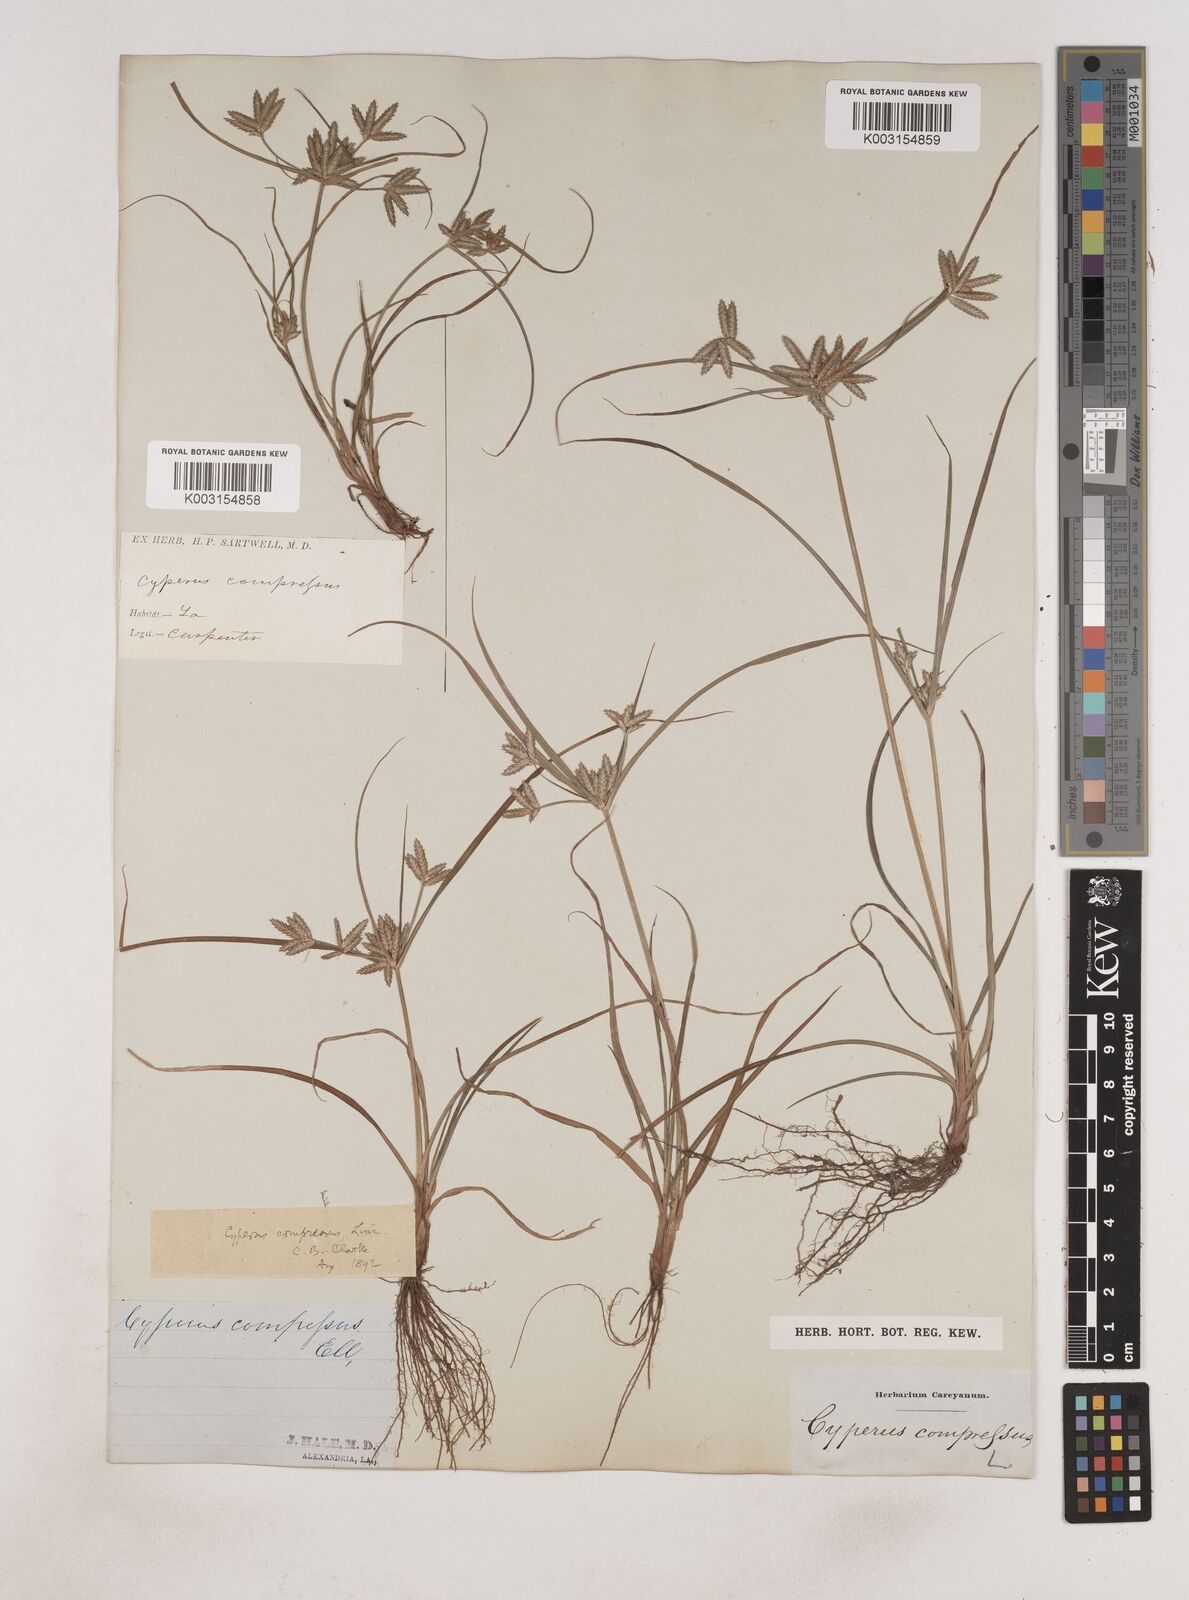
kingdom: Plantae
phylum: Tracheophyta
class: Liliopsida
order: Poales
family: Cyperaceae
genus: Cyperus
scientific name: Cyperus compressus
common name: Poorland flatsedge
